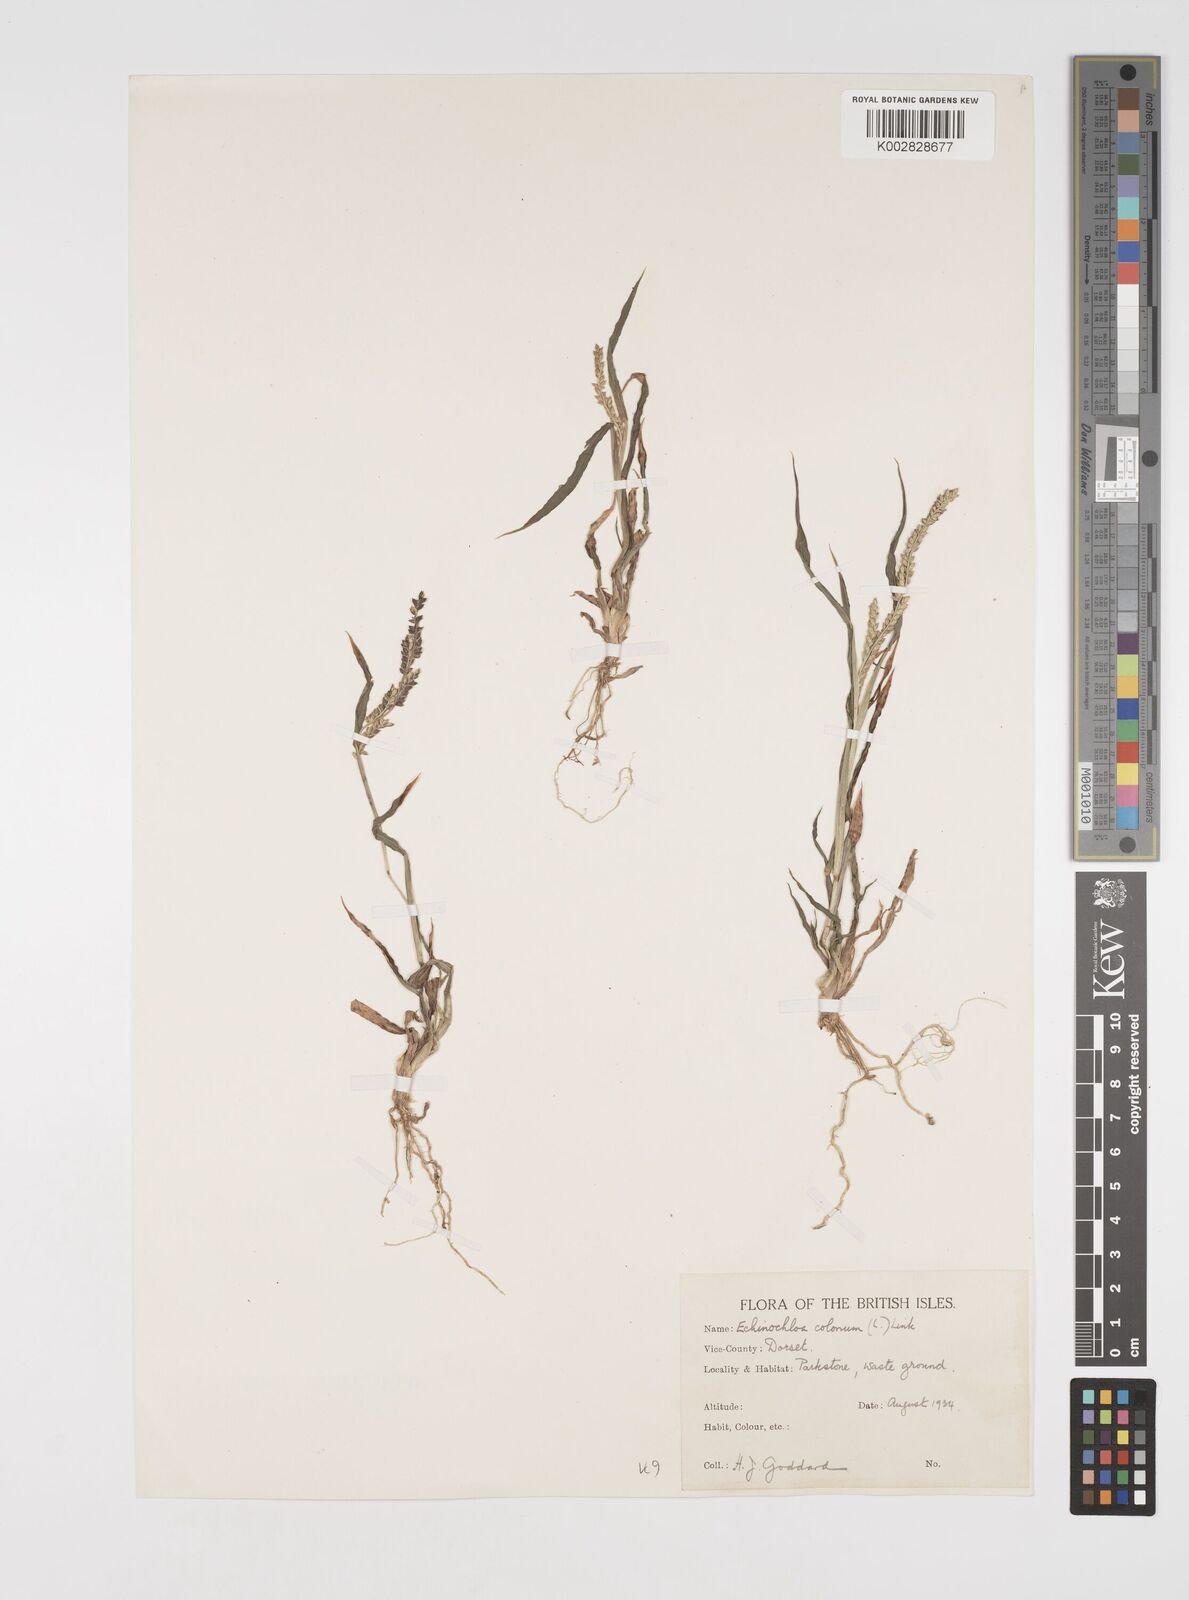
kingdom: Plantae
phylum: Tracheophyta
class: Liliopsida
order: Poales
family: Poaceae
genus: Echinochloa
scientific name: Echinochloa colonum
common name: Jungle rice
